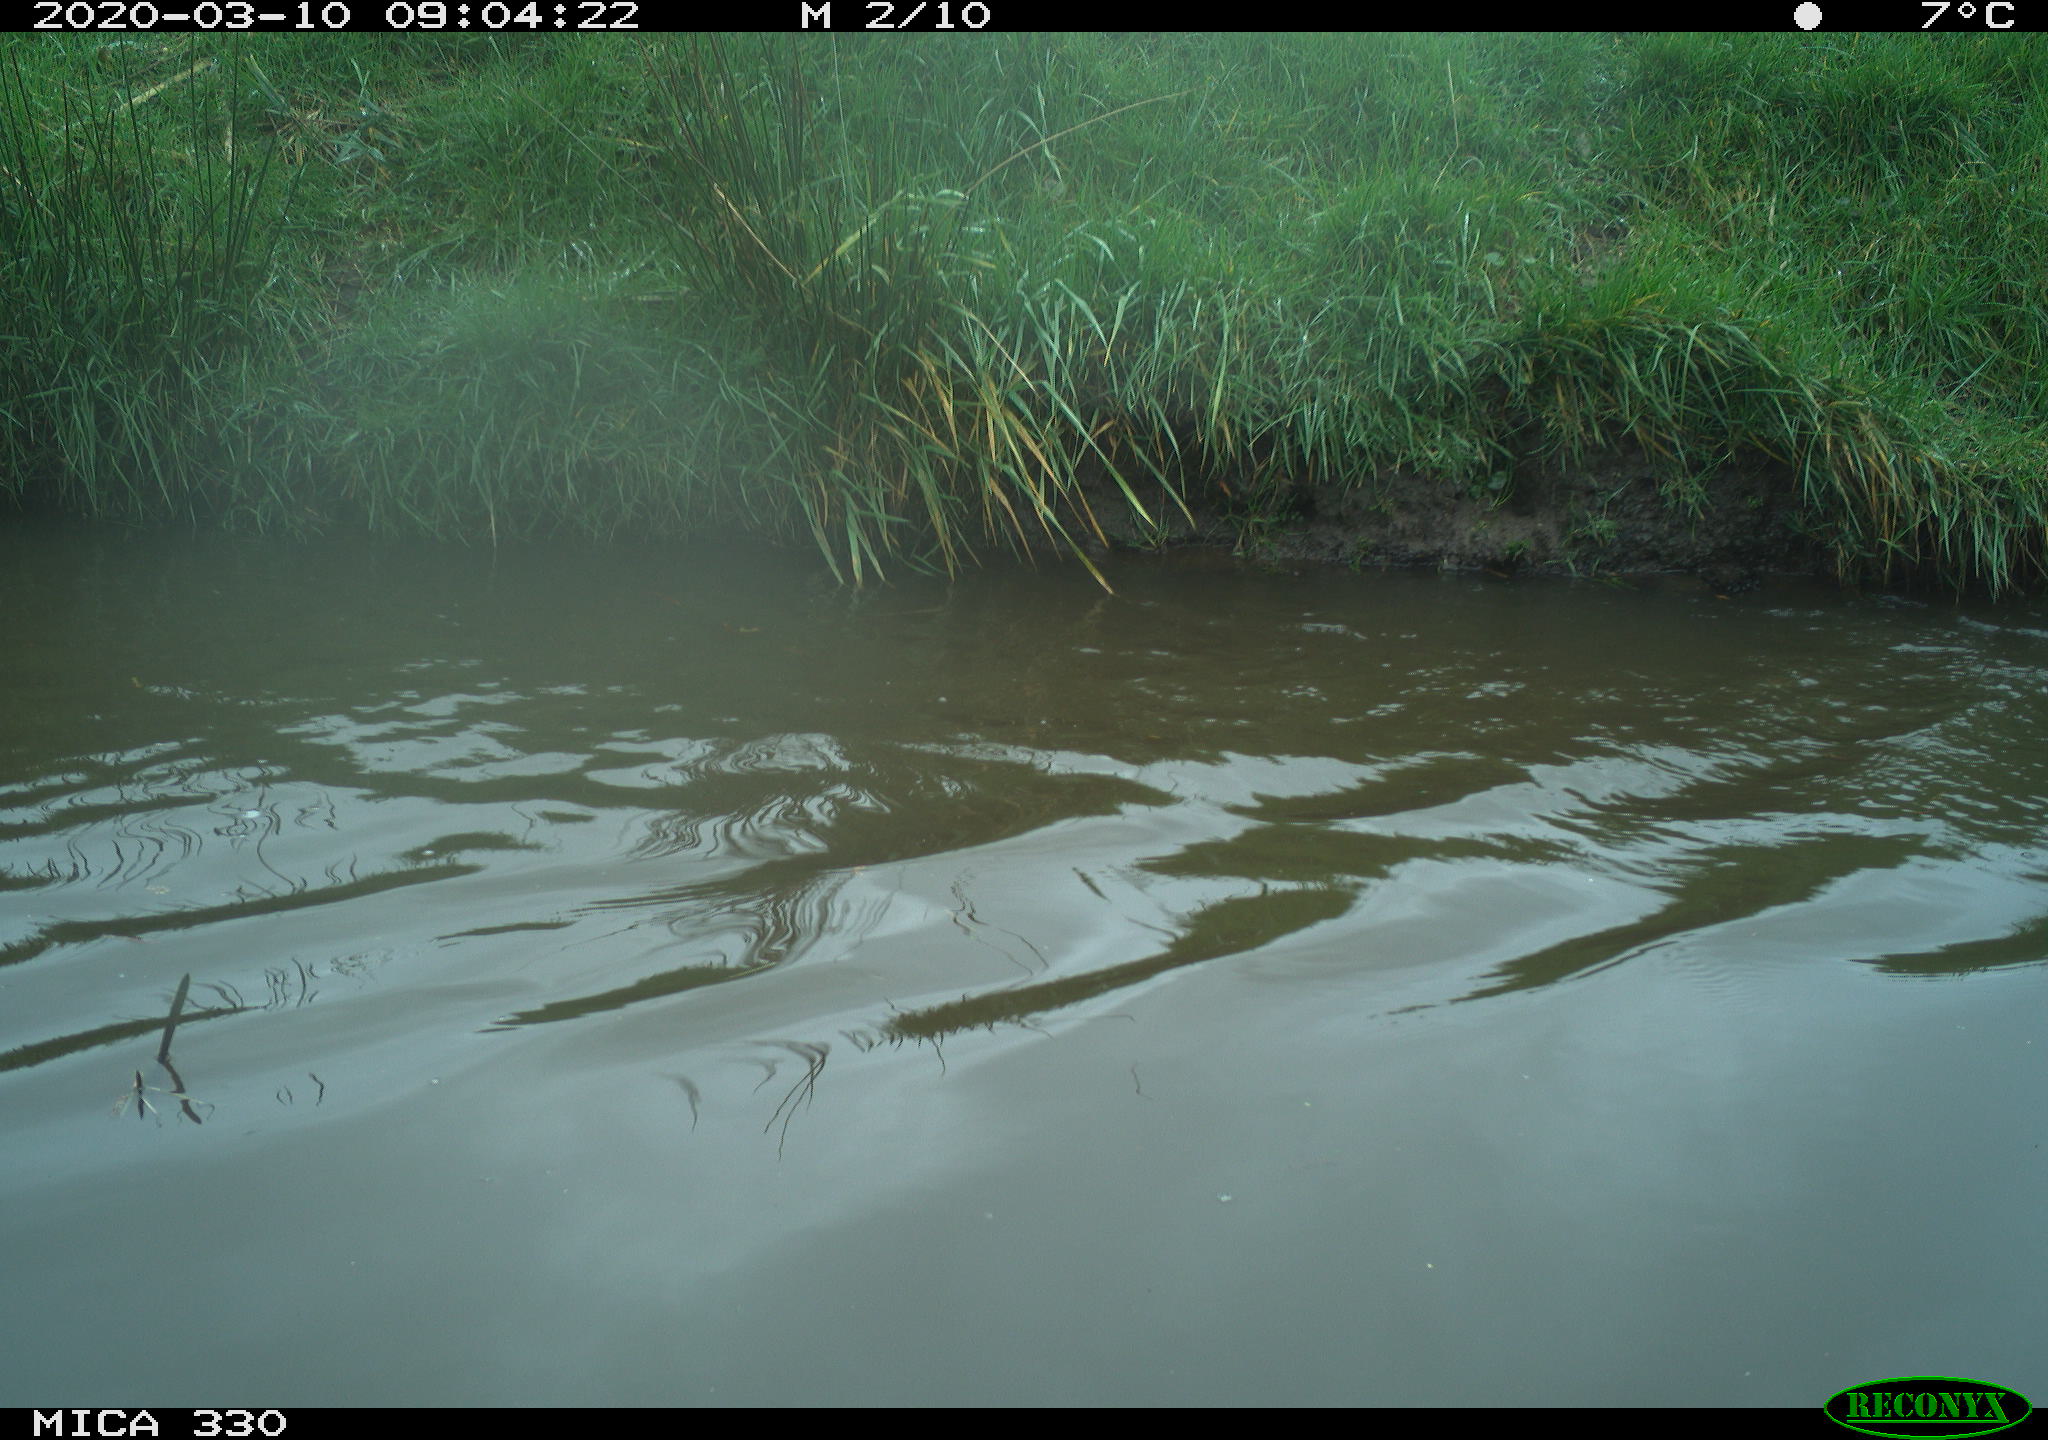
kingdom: Animalia
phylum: Chordata
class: Aves
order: Anseriformes
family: Anatidae
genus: Anas
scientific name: Anas platyrhynchos
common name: Mallard
